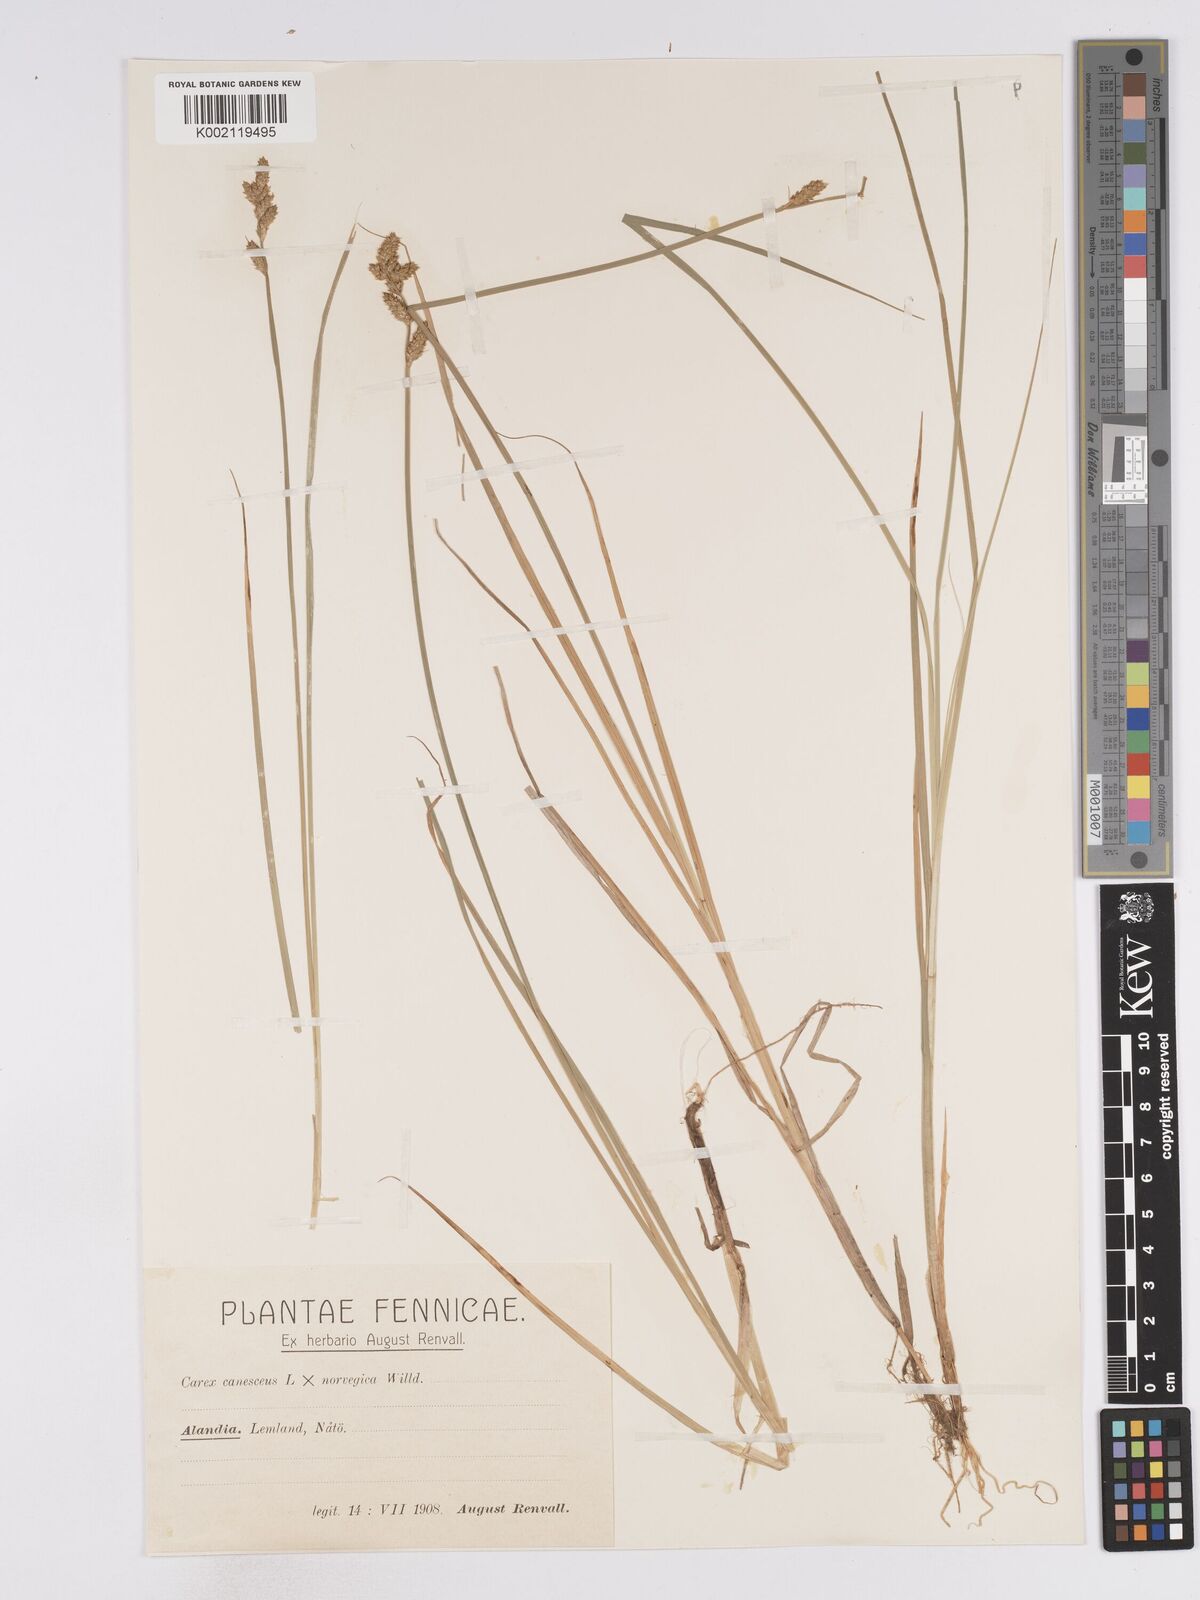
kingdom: Plantae
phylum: Tracheophyta
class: Liliopsida
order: Poales
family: Cyperaceae
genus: Carex
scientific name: Carex mackenziei
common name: Mackenzie's sedge
